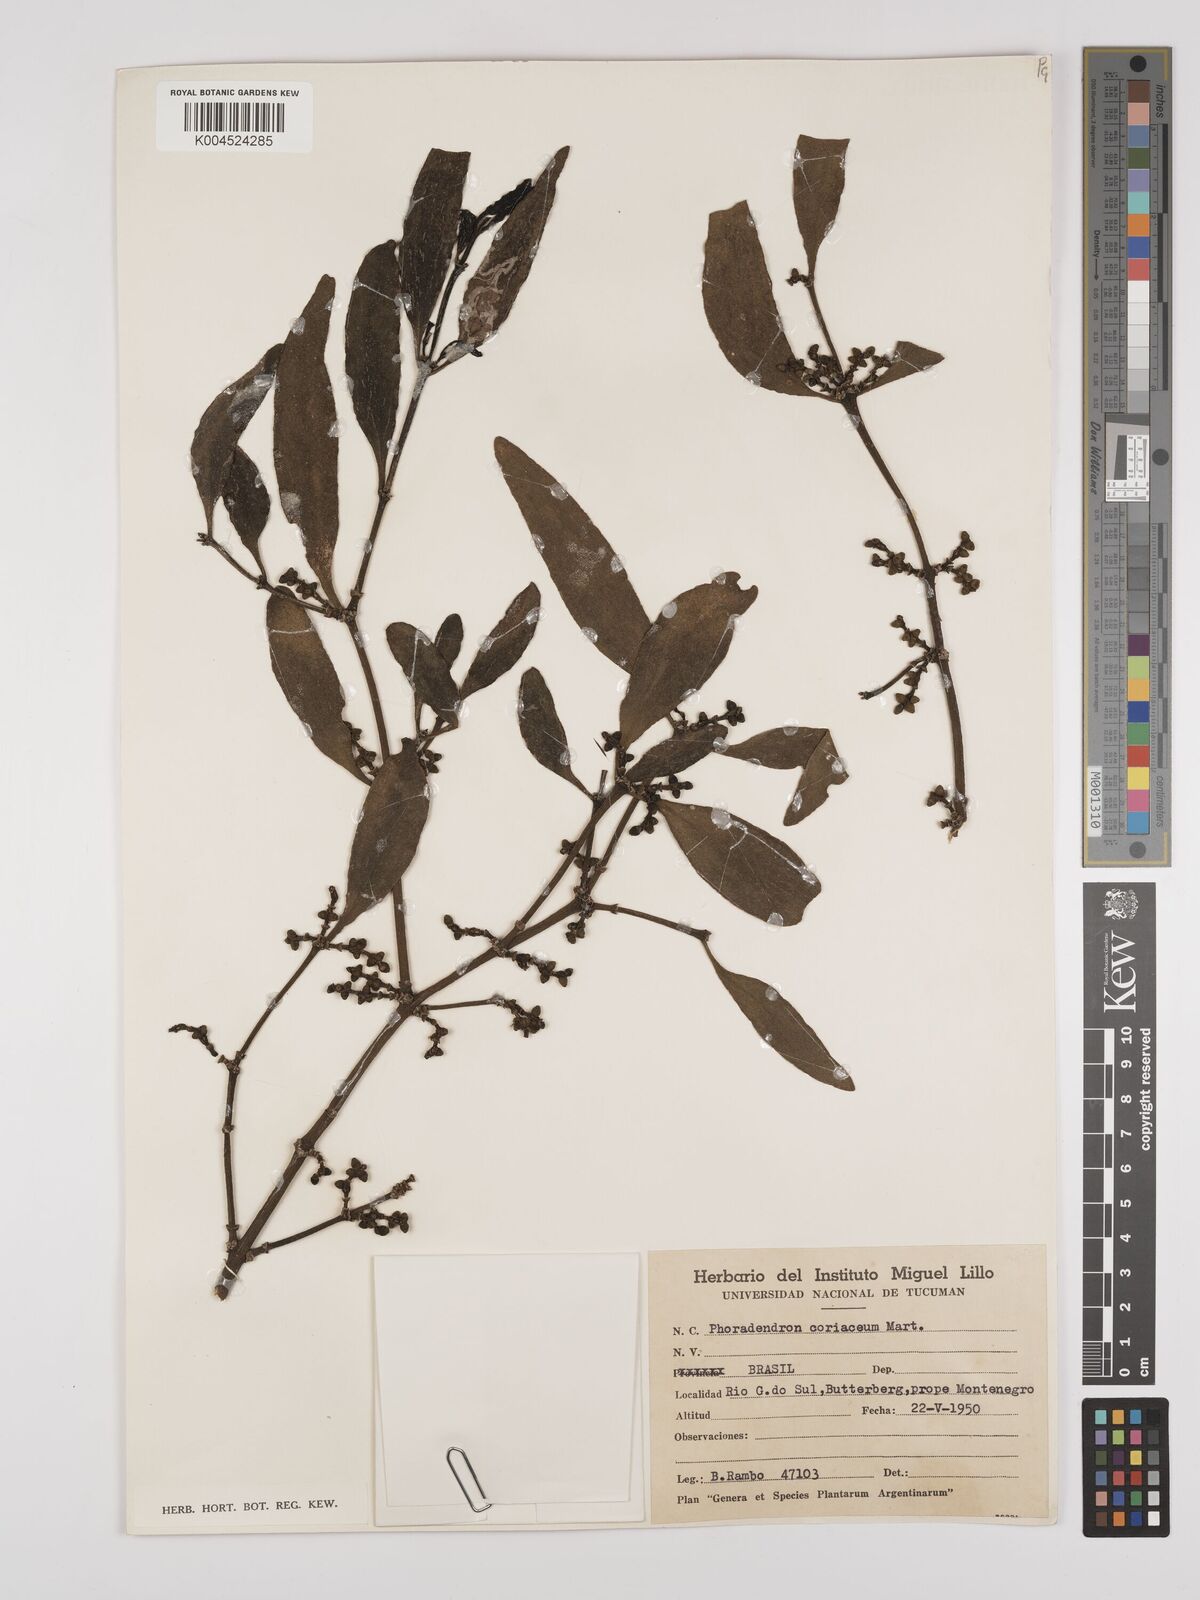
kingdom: Plantae
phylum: Tracheophyta
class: Magnoliopsida
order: Santalales
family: Viscaceae
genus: Phoradendron
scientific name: Phoradendron coriaceum
